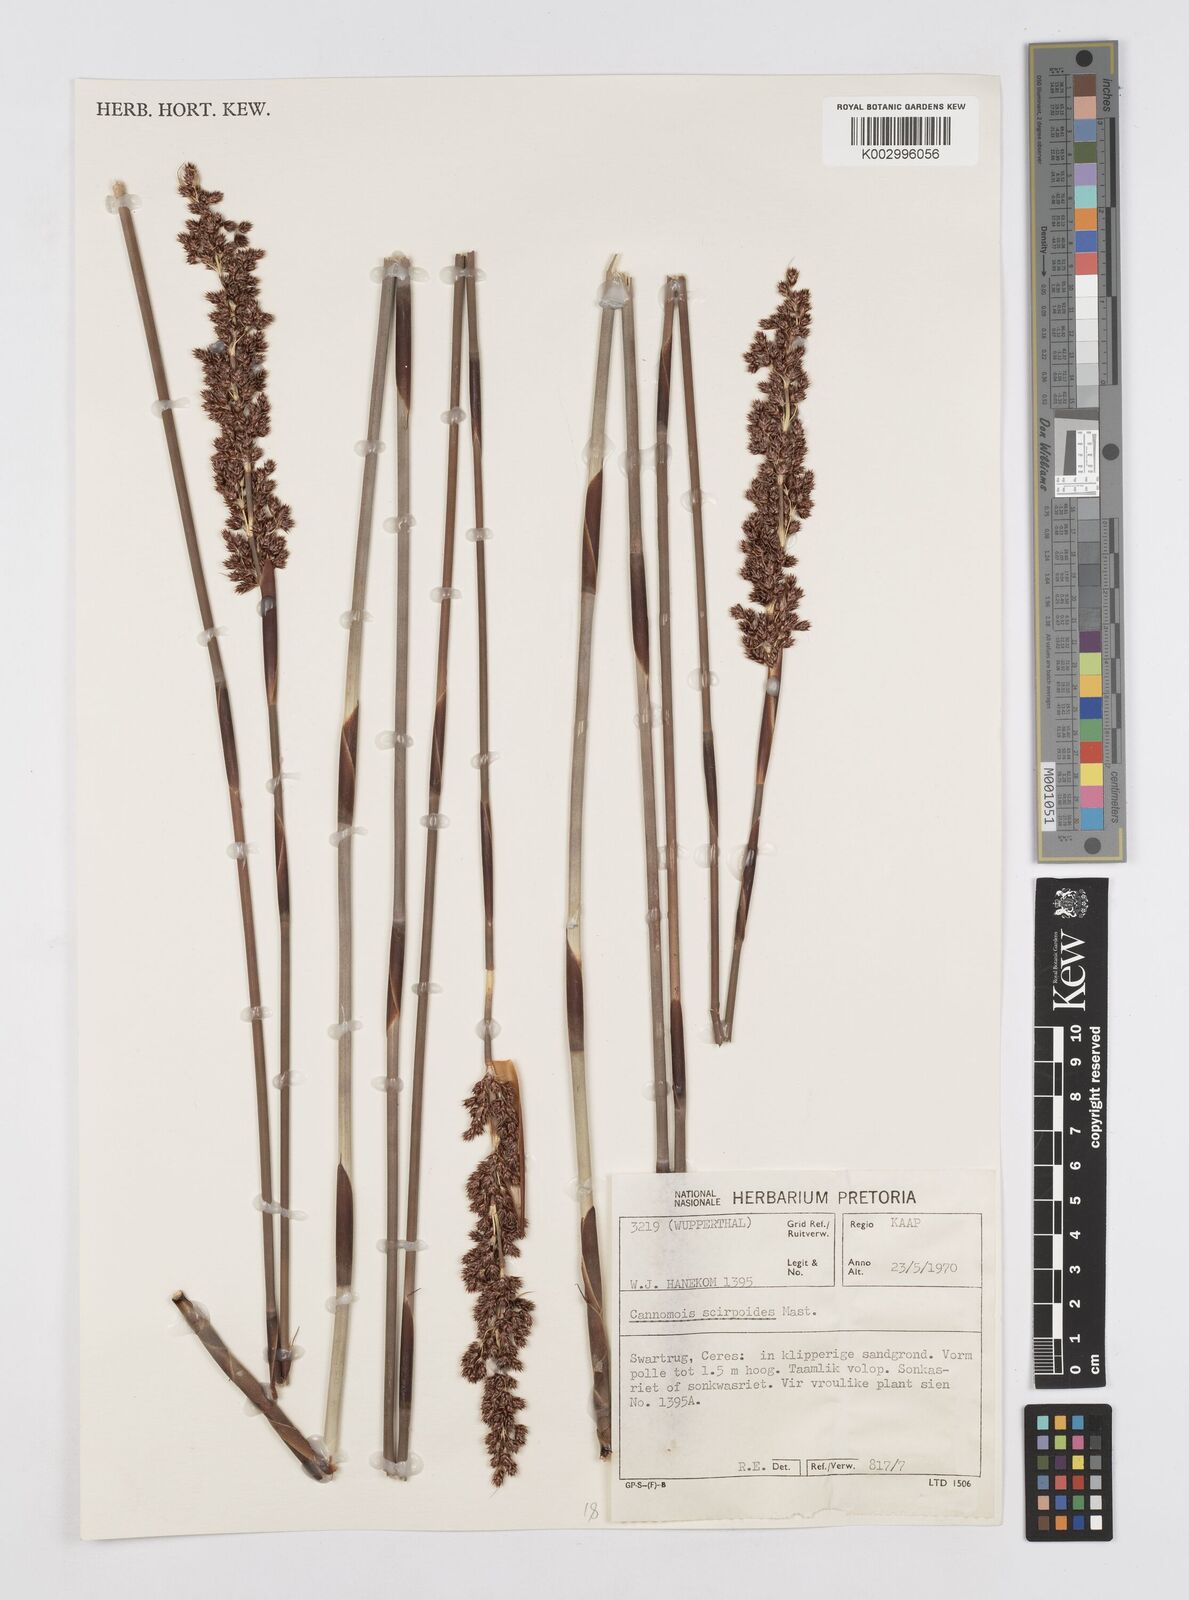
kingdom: Plantae
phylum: Tracheophyta
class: Liliopsida
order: Poales
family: Restionaceae
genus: Cannomois
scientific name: Cannomois parviflora
